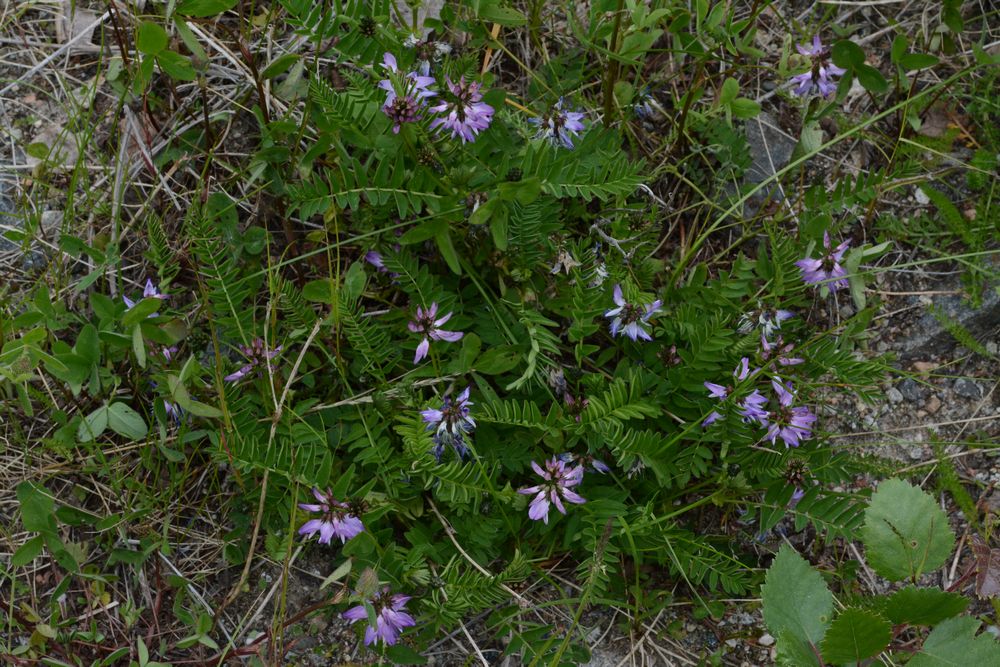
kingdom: Plantae
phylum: Tracheophyta
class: Magnoliopsida
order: Fabales
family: Fabaceae
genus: Astragalus
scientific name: Astragalus norvegicus
